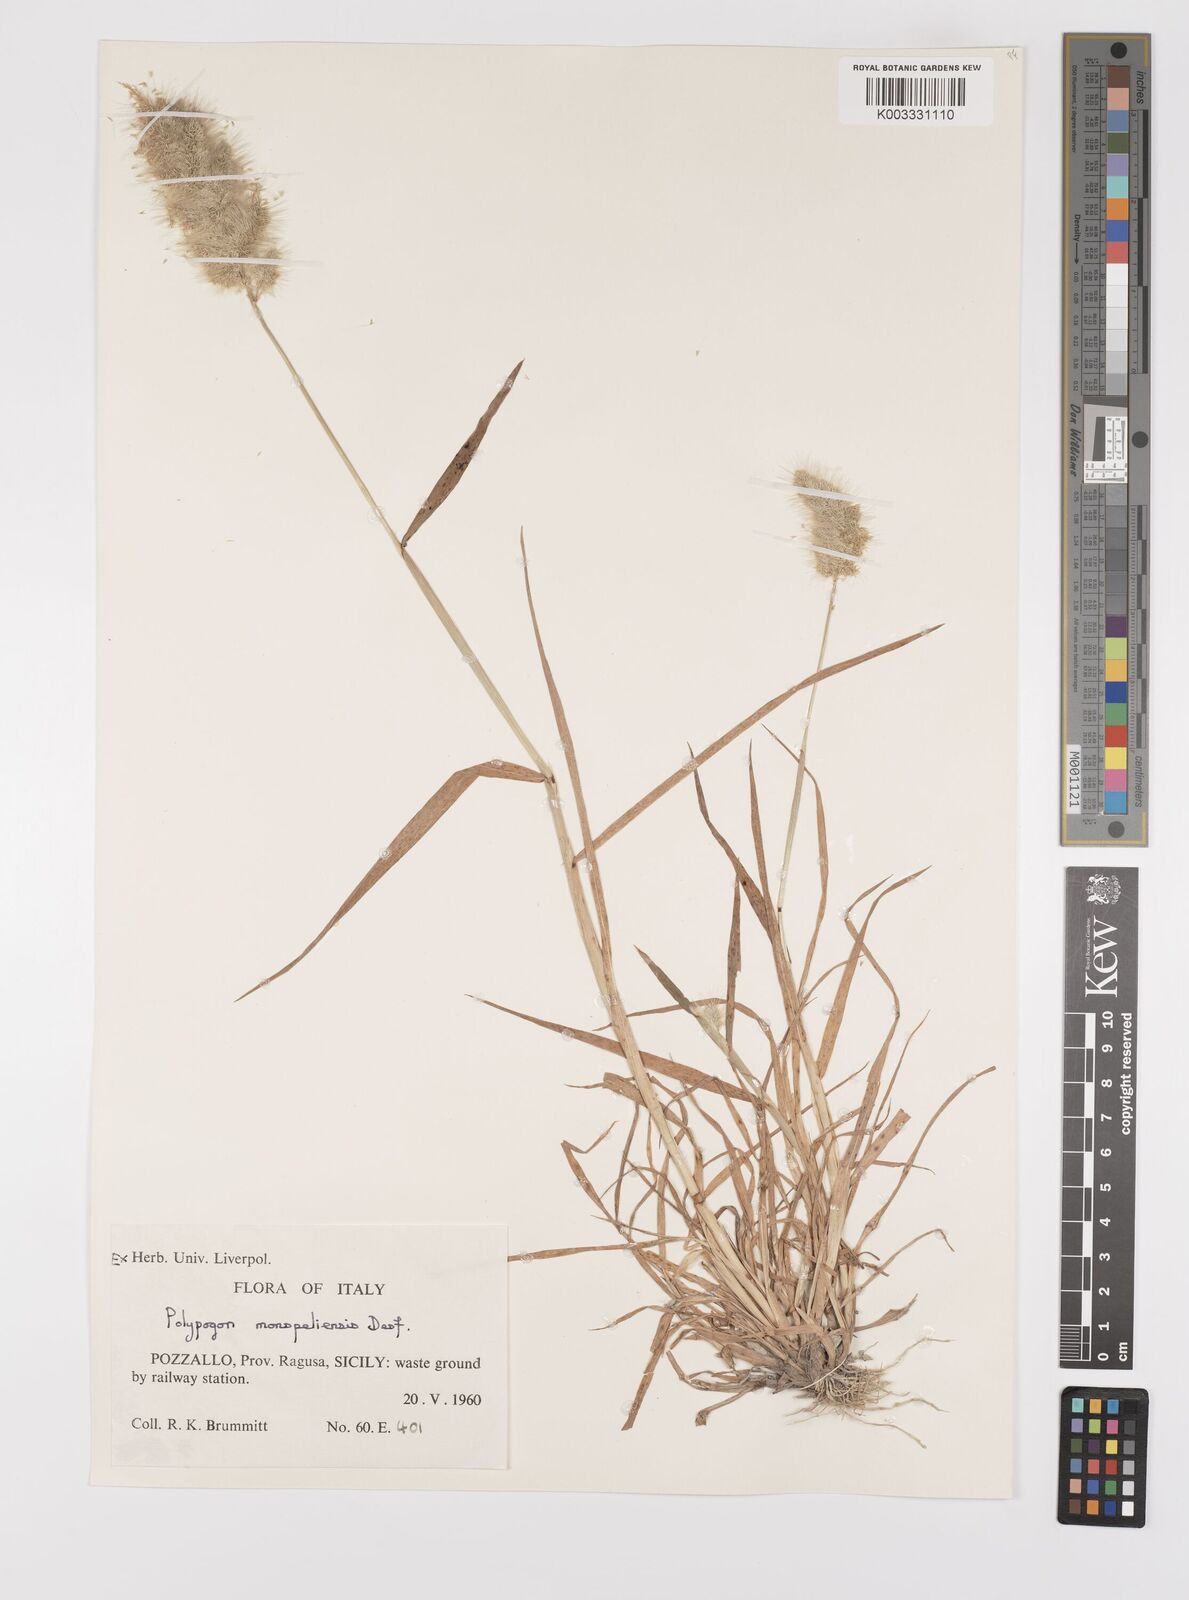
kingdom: Plantae
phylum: Tracheophyta
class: Liliopsida
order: Poales
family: Poaceae
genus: Polypogon
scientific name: Polypogon monspeliensis
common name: Annual rabbitsfoot grass
